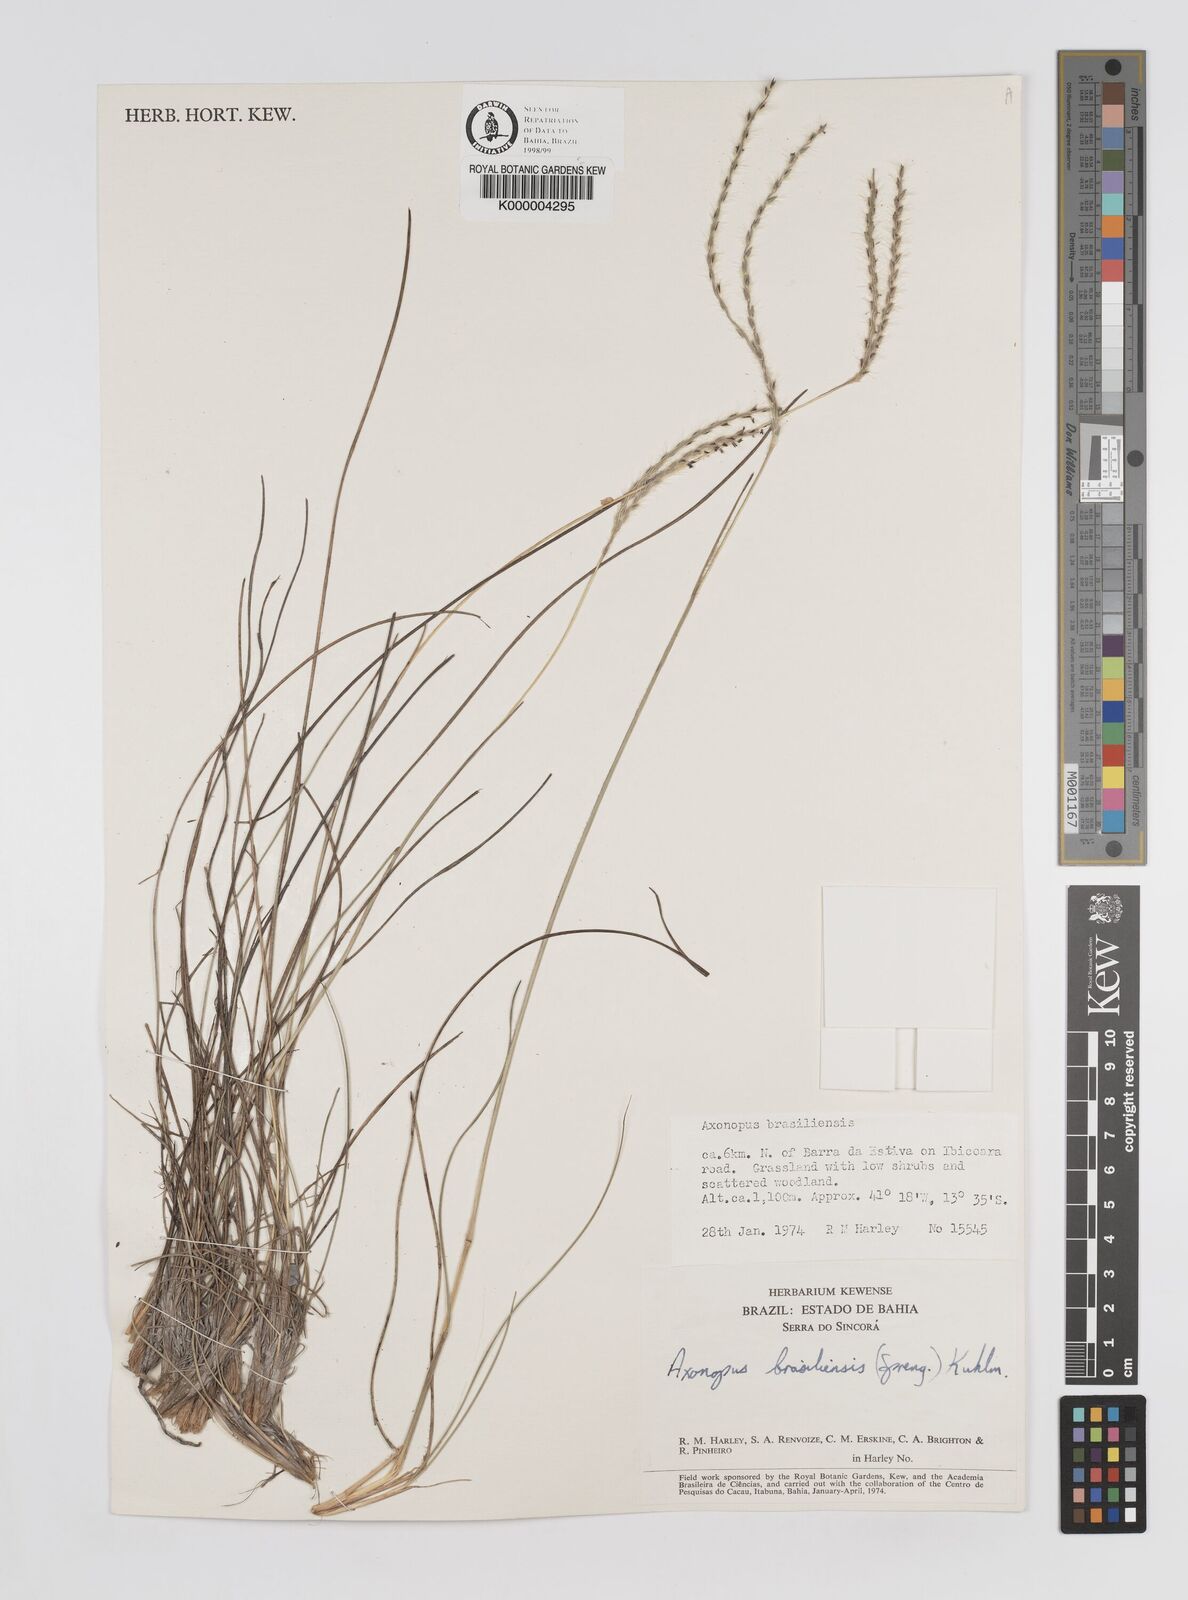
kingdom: Plantae
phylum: Tracheophyta
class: Liliopsida
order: Poales
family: Poaceae
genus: Axonopus
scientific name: Axonopus brasiliensis
